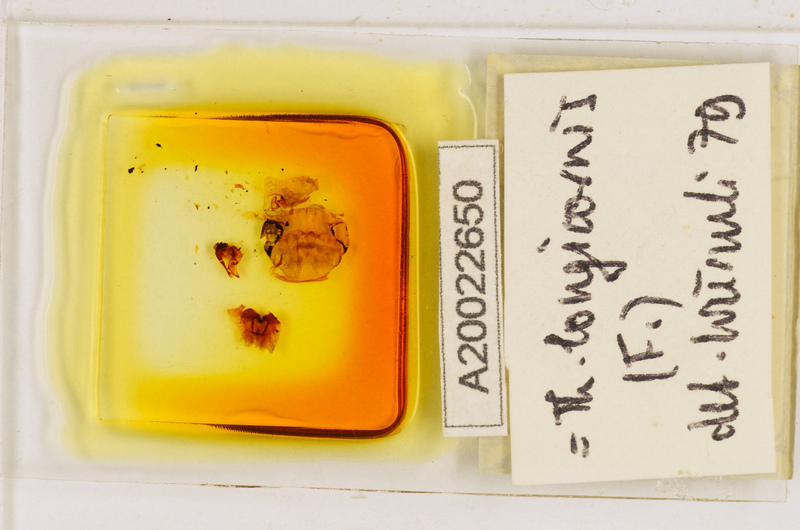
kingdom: Animalia
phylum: Arthropoda
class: Chilopoda
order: Scutigeromorpha
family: Scutigeridae
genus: Thereuopoda
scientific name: Thereuopoda longicornis
